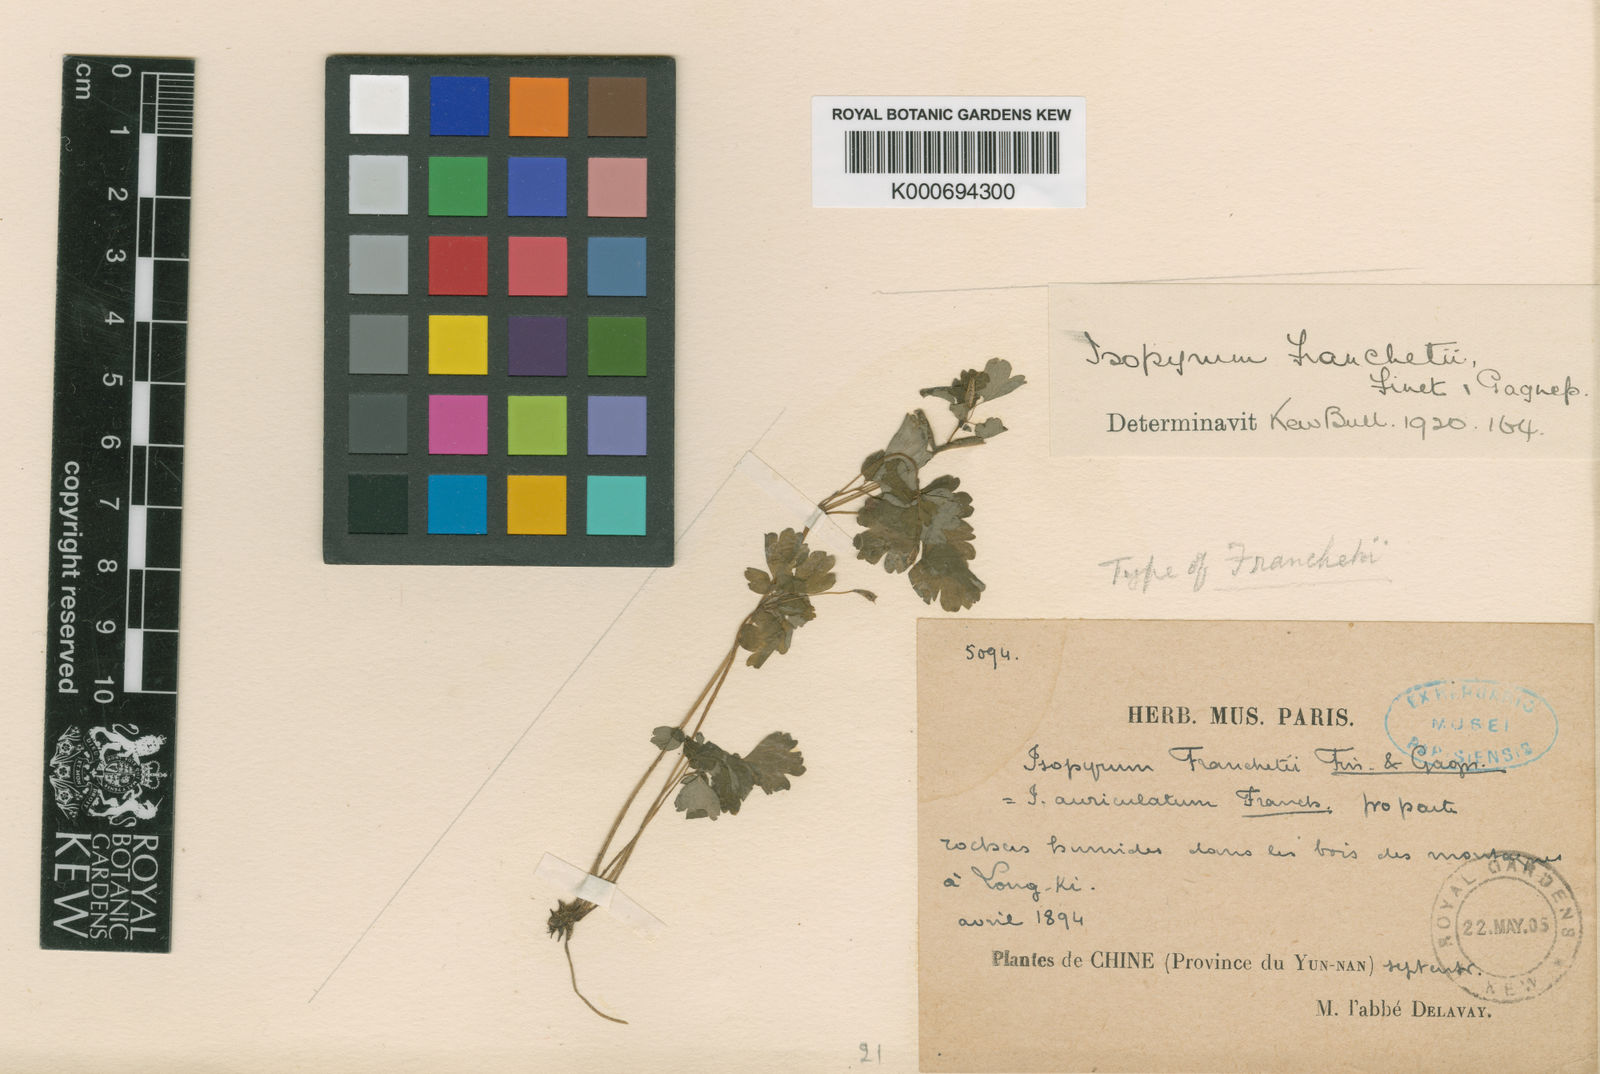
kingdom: Plantae
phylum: Tracheophyta
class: Magnoliopsida
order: Ranunculales
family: Ranunculaceae
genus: Dichocarpum
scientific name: Dichocarpum franchetii
